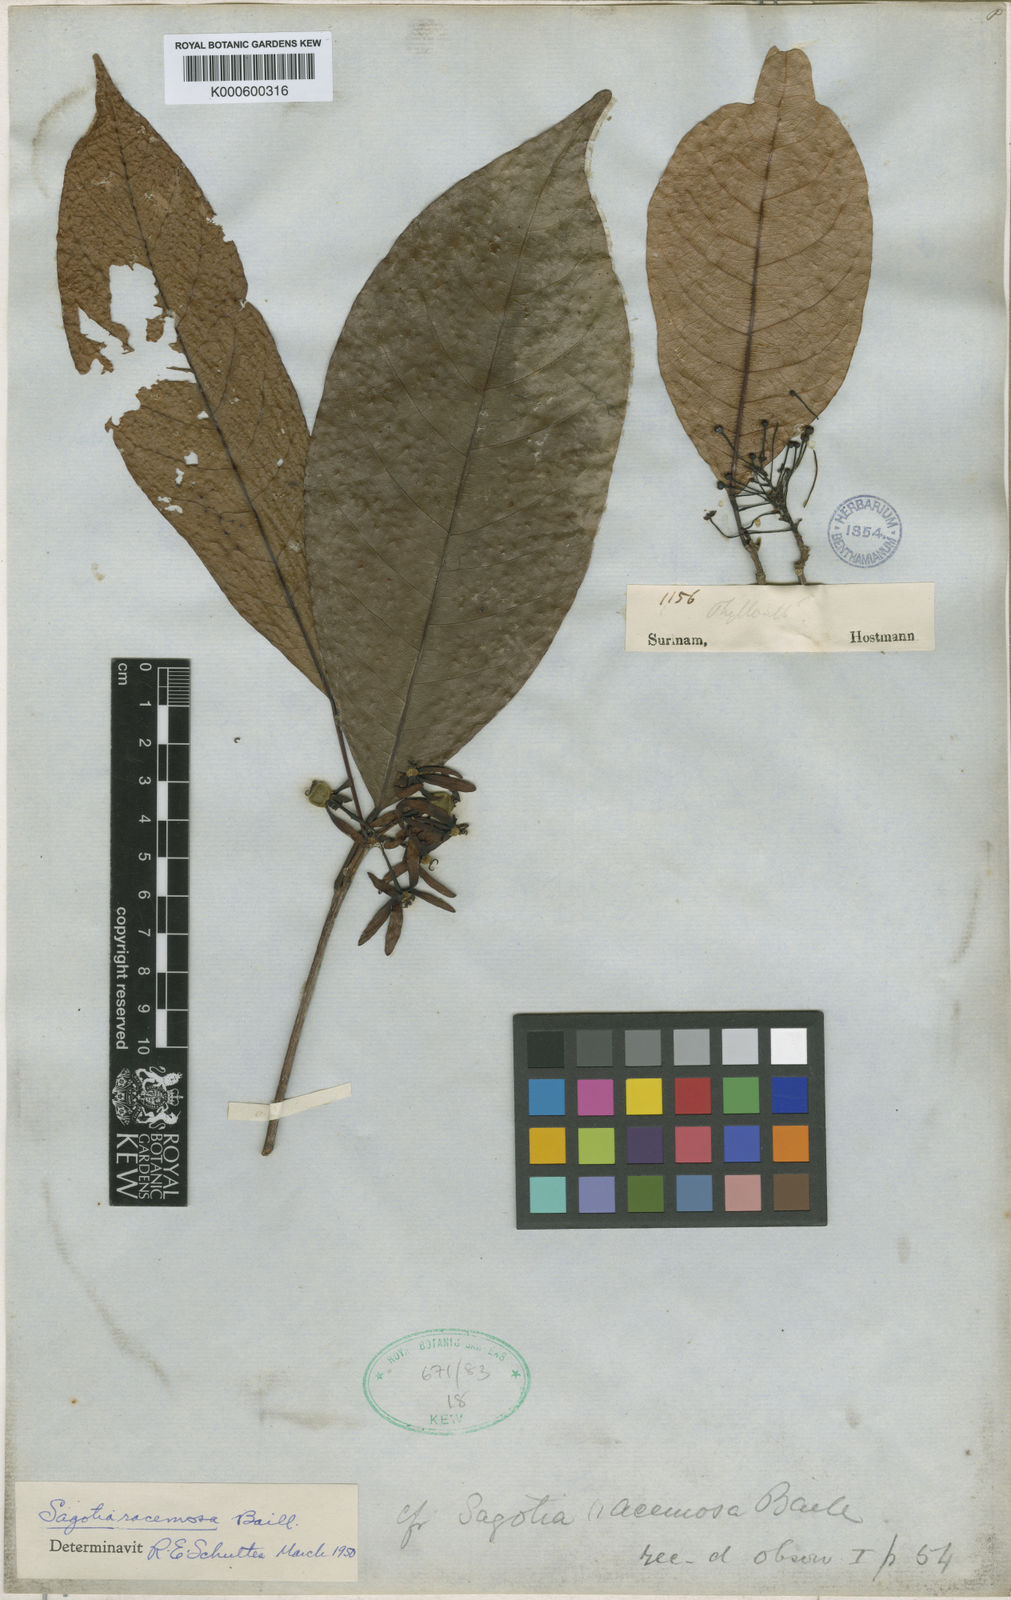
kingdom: Plantae
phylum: Tracheophyta
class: Magnoliopsida
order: Malpighiales
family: Euphorbiaceae
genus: Sagotia
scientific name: Sagotia racemosa
